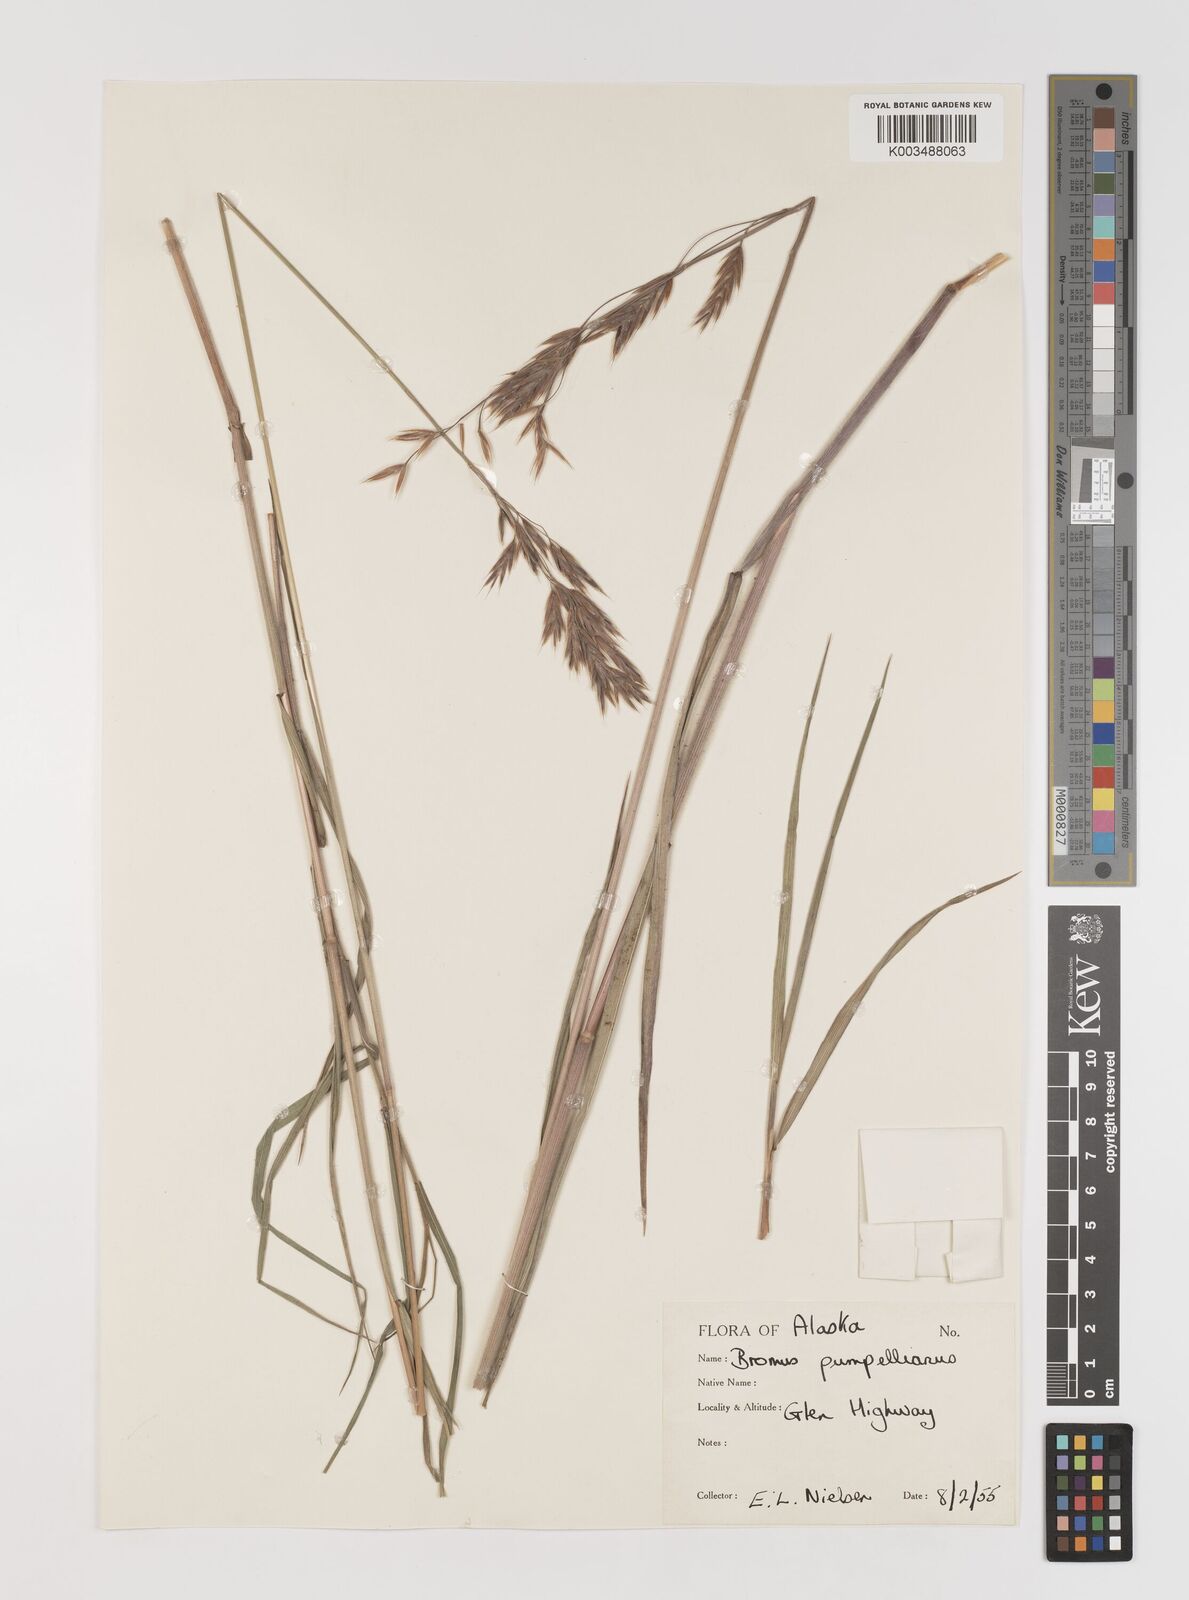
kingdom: Plantae
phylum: Tracheophyta
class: Liliopsida
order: Poales
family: Poaceae
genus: Bromus
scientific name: Bromus pumpellianus
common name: Pumpelly's brome
